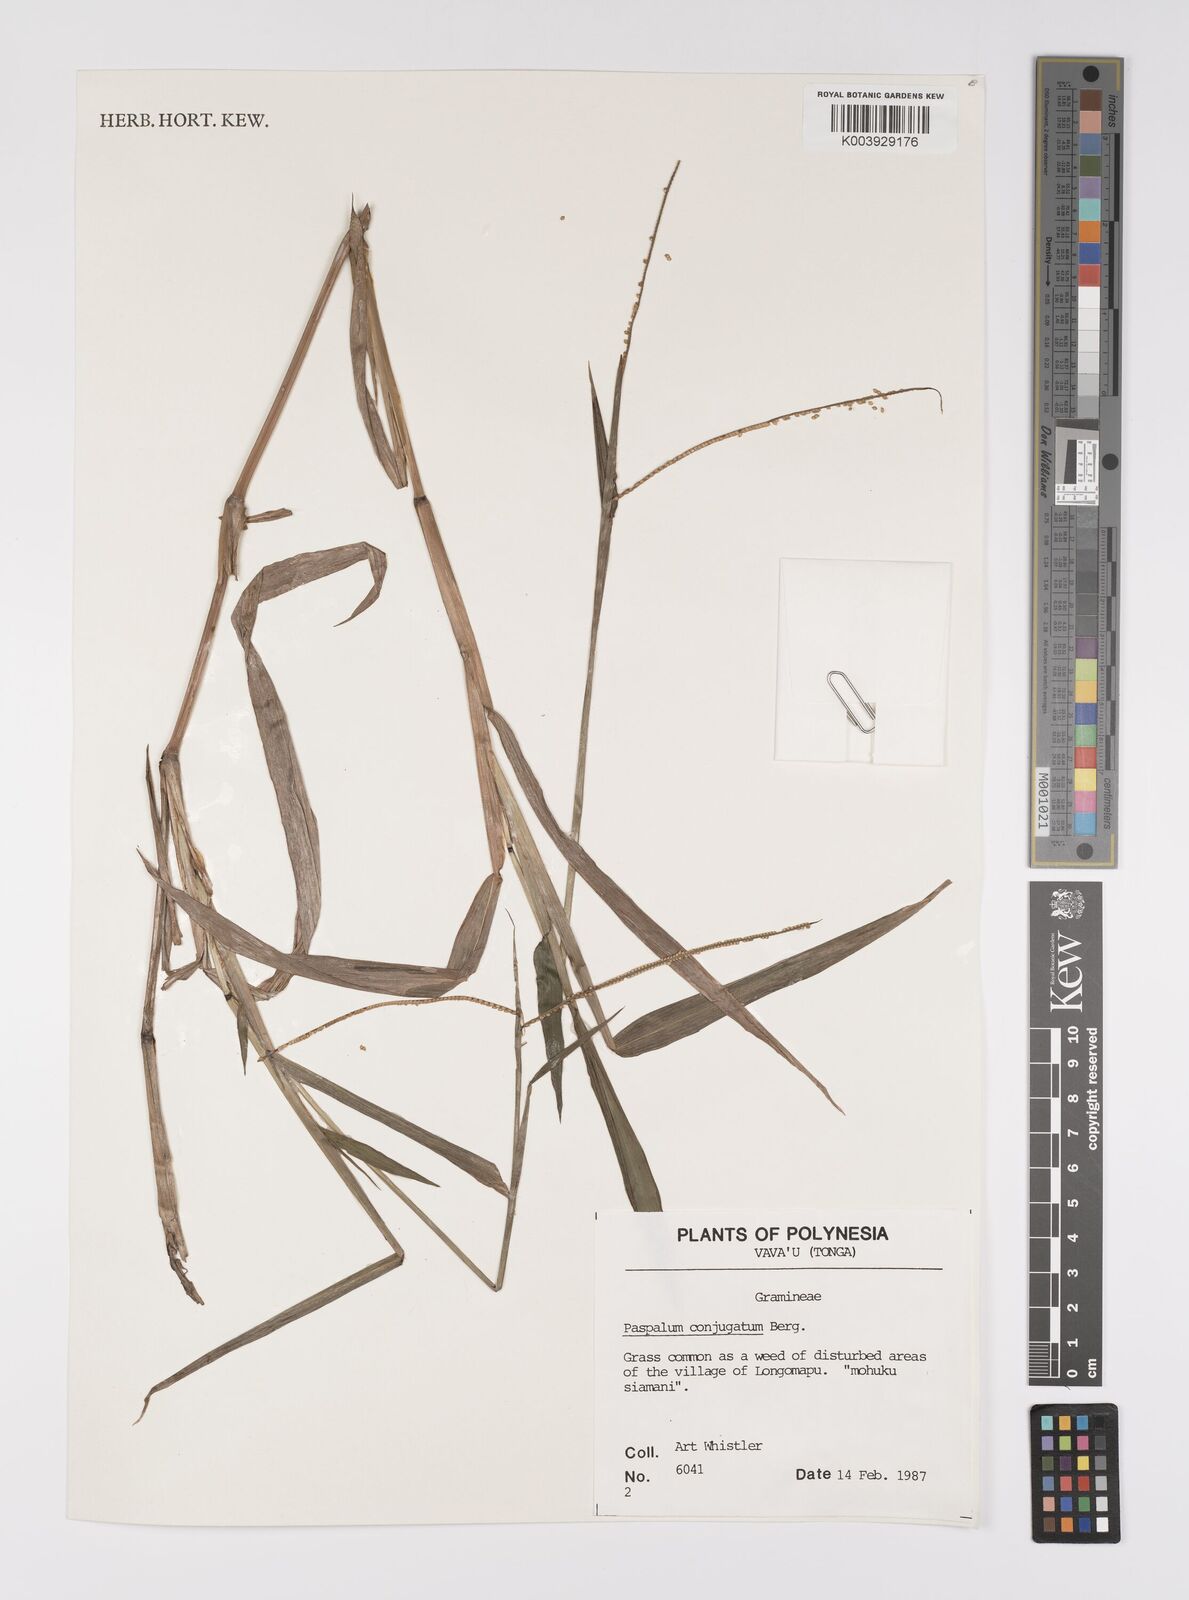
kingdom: Plantae
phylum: Tracheophyta
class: Liliopsida
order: Poales
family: Poaceae
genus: Paspalum
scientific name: Paspalum conjugatum
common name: Hilograss
